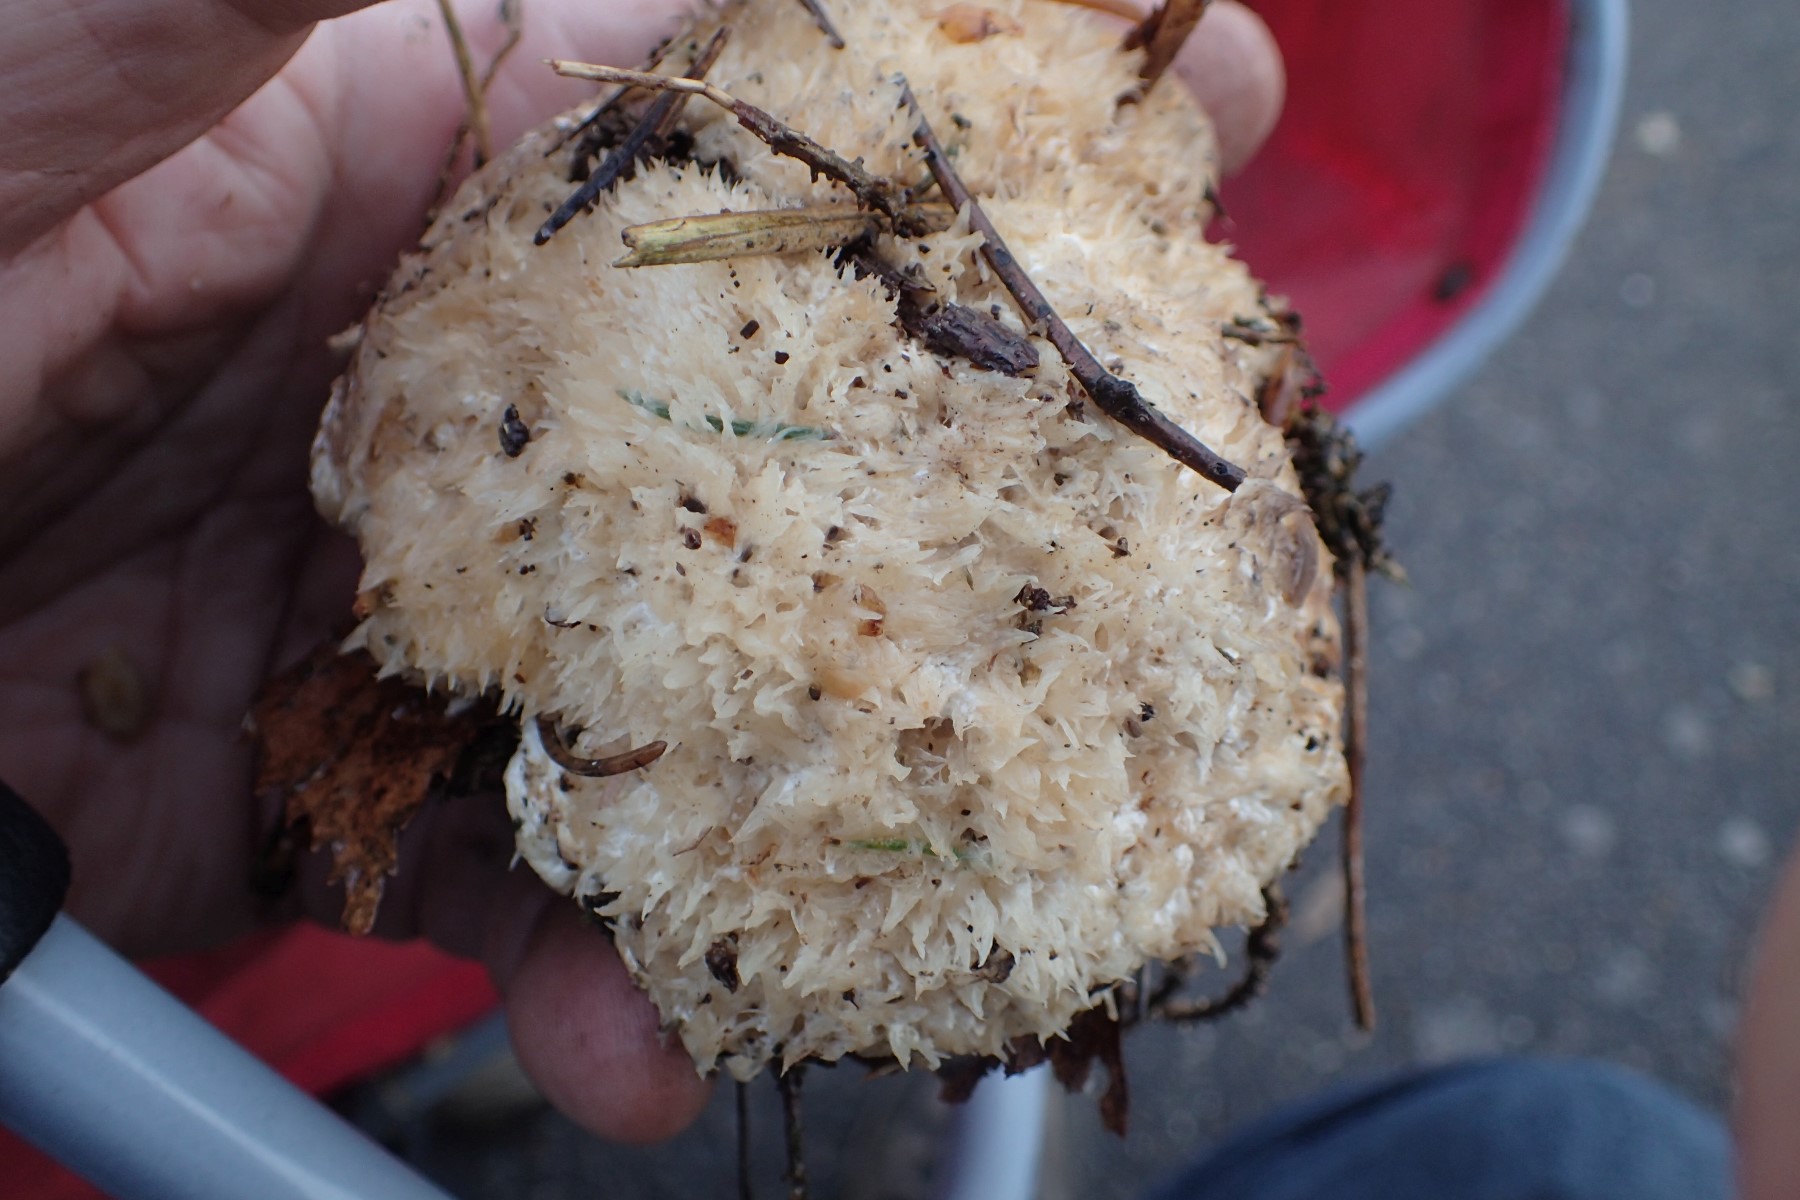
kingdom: Fungi
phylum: Basidiomycota
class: Agaricomycetes
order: Polyporales
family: Dacryobolaceae
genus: Postia
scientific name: Postia ptychogaster
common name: støvende kødporesvamp
